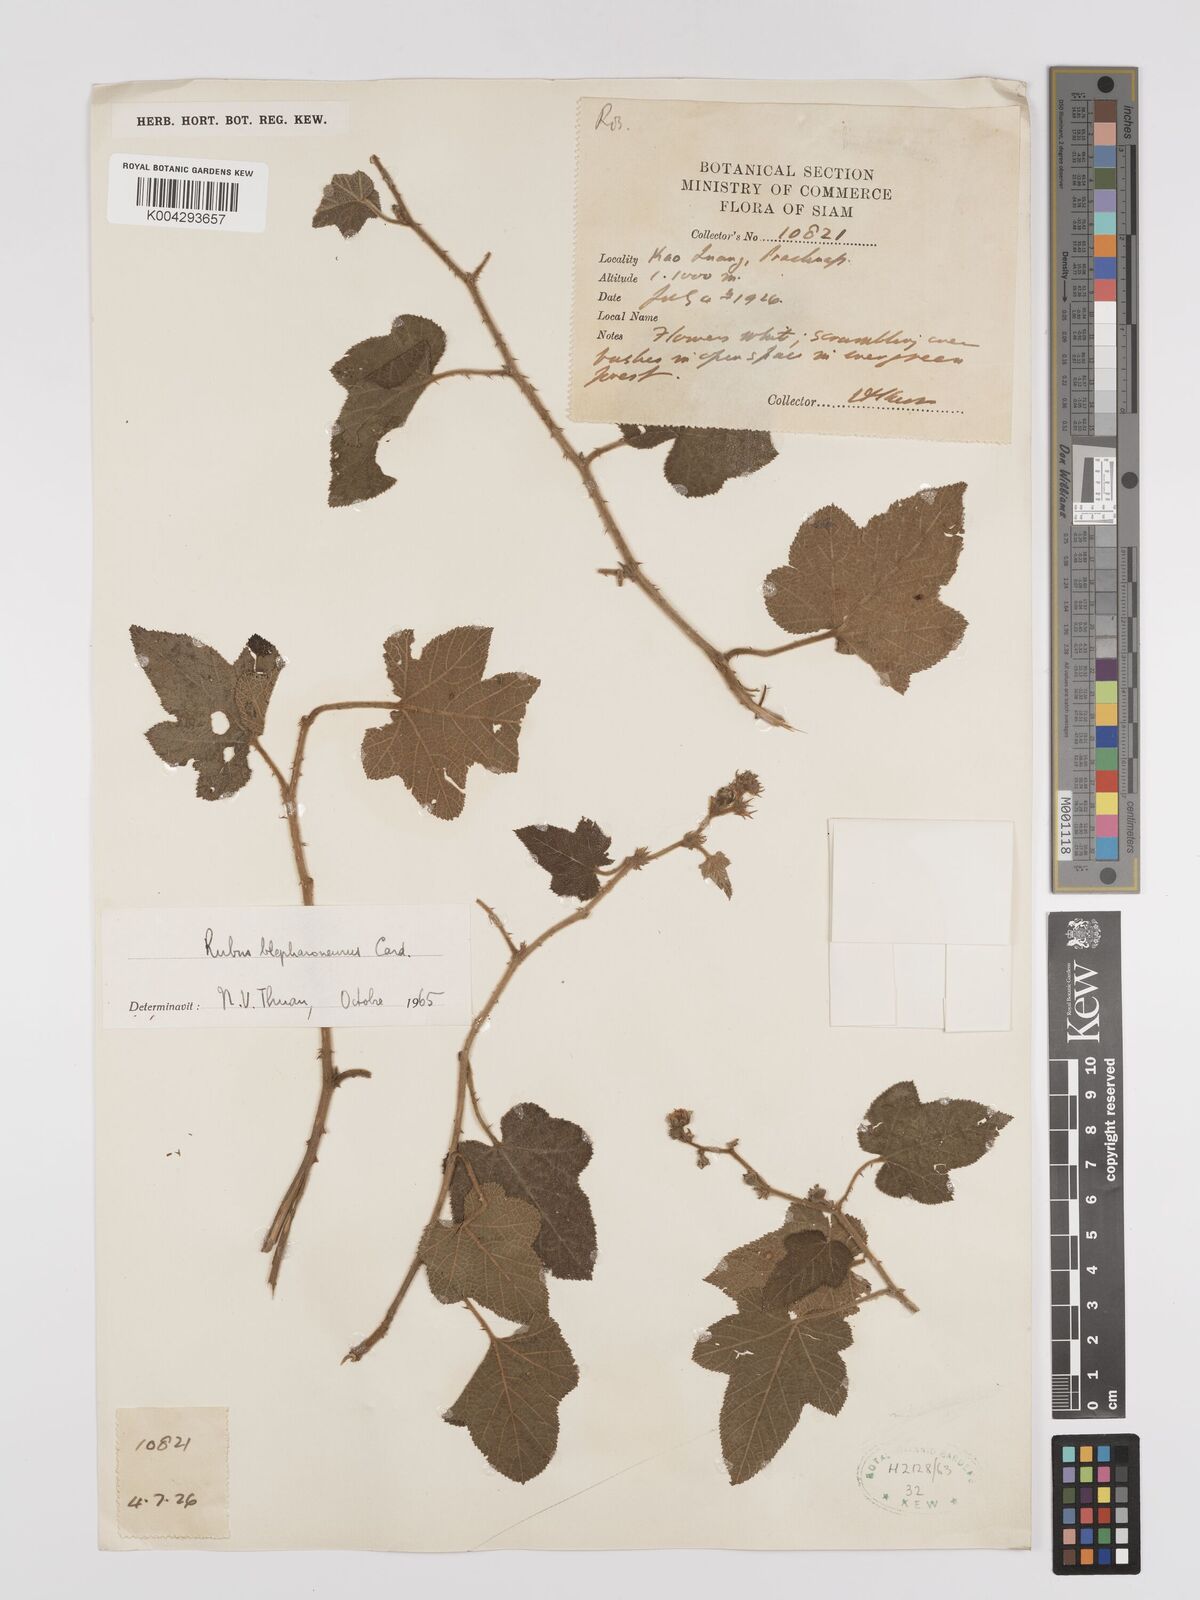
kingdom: Plantae
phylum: Tracheophyta
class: Magnoliopsida
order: Rosales
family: Rosaceae
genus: Rubus
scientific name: Rubus blepharoneurus
